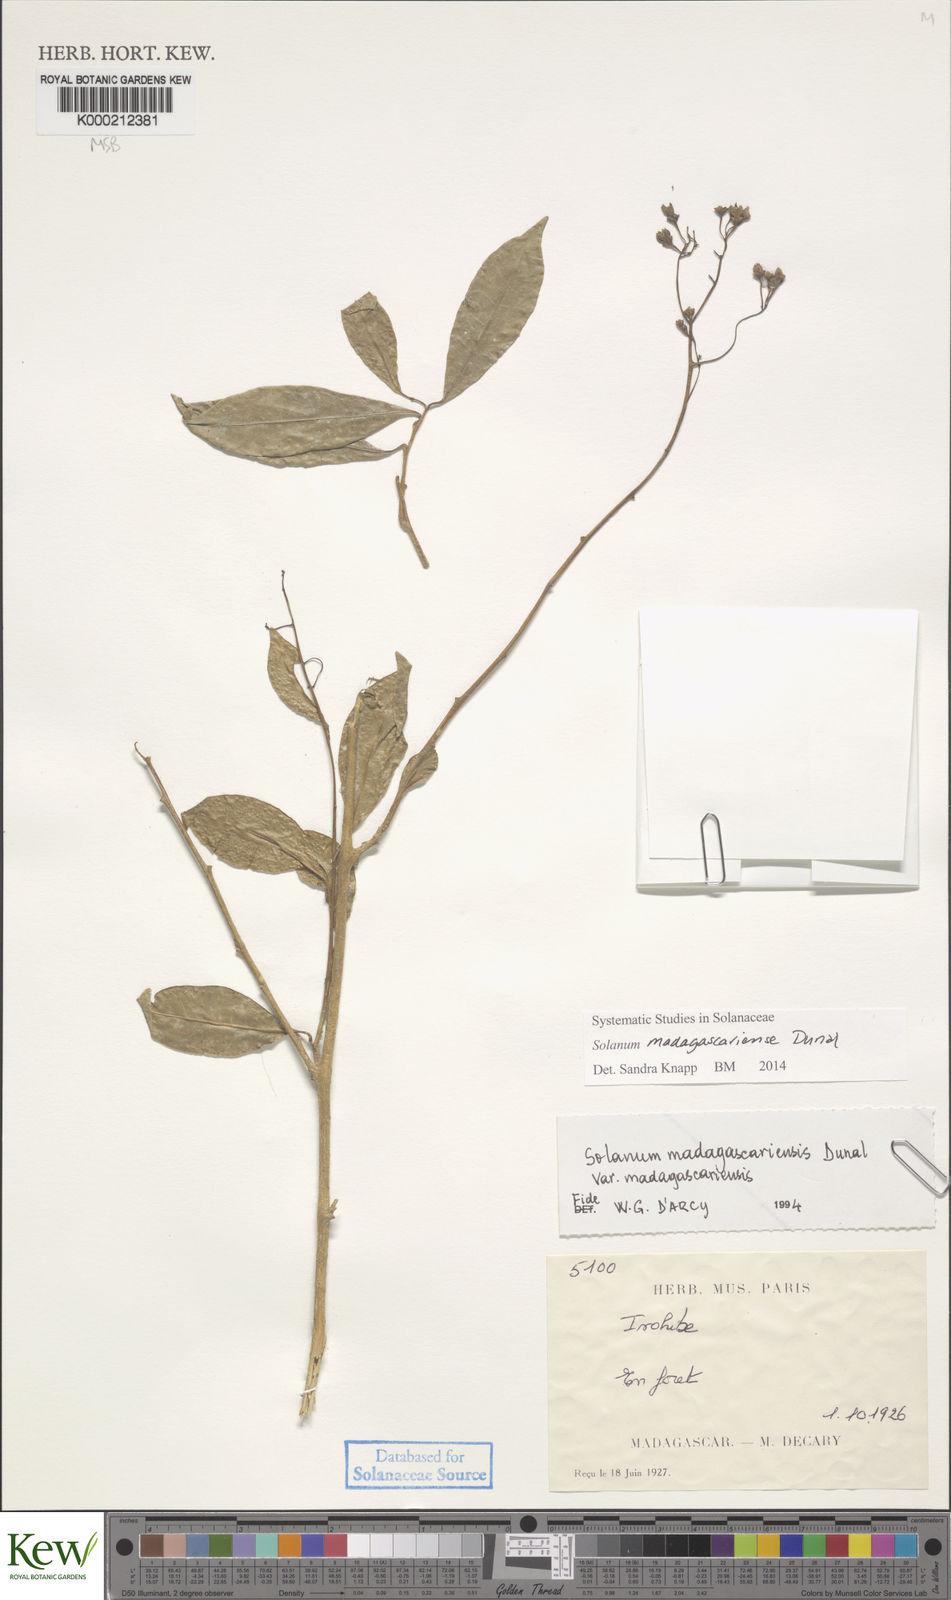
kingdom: Plantae
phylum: Tracheophyta
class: Magnoliopsida
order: Solanales
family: Solanaceae
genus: Solanum
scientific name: Solanum madagascariense
